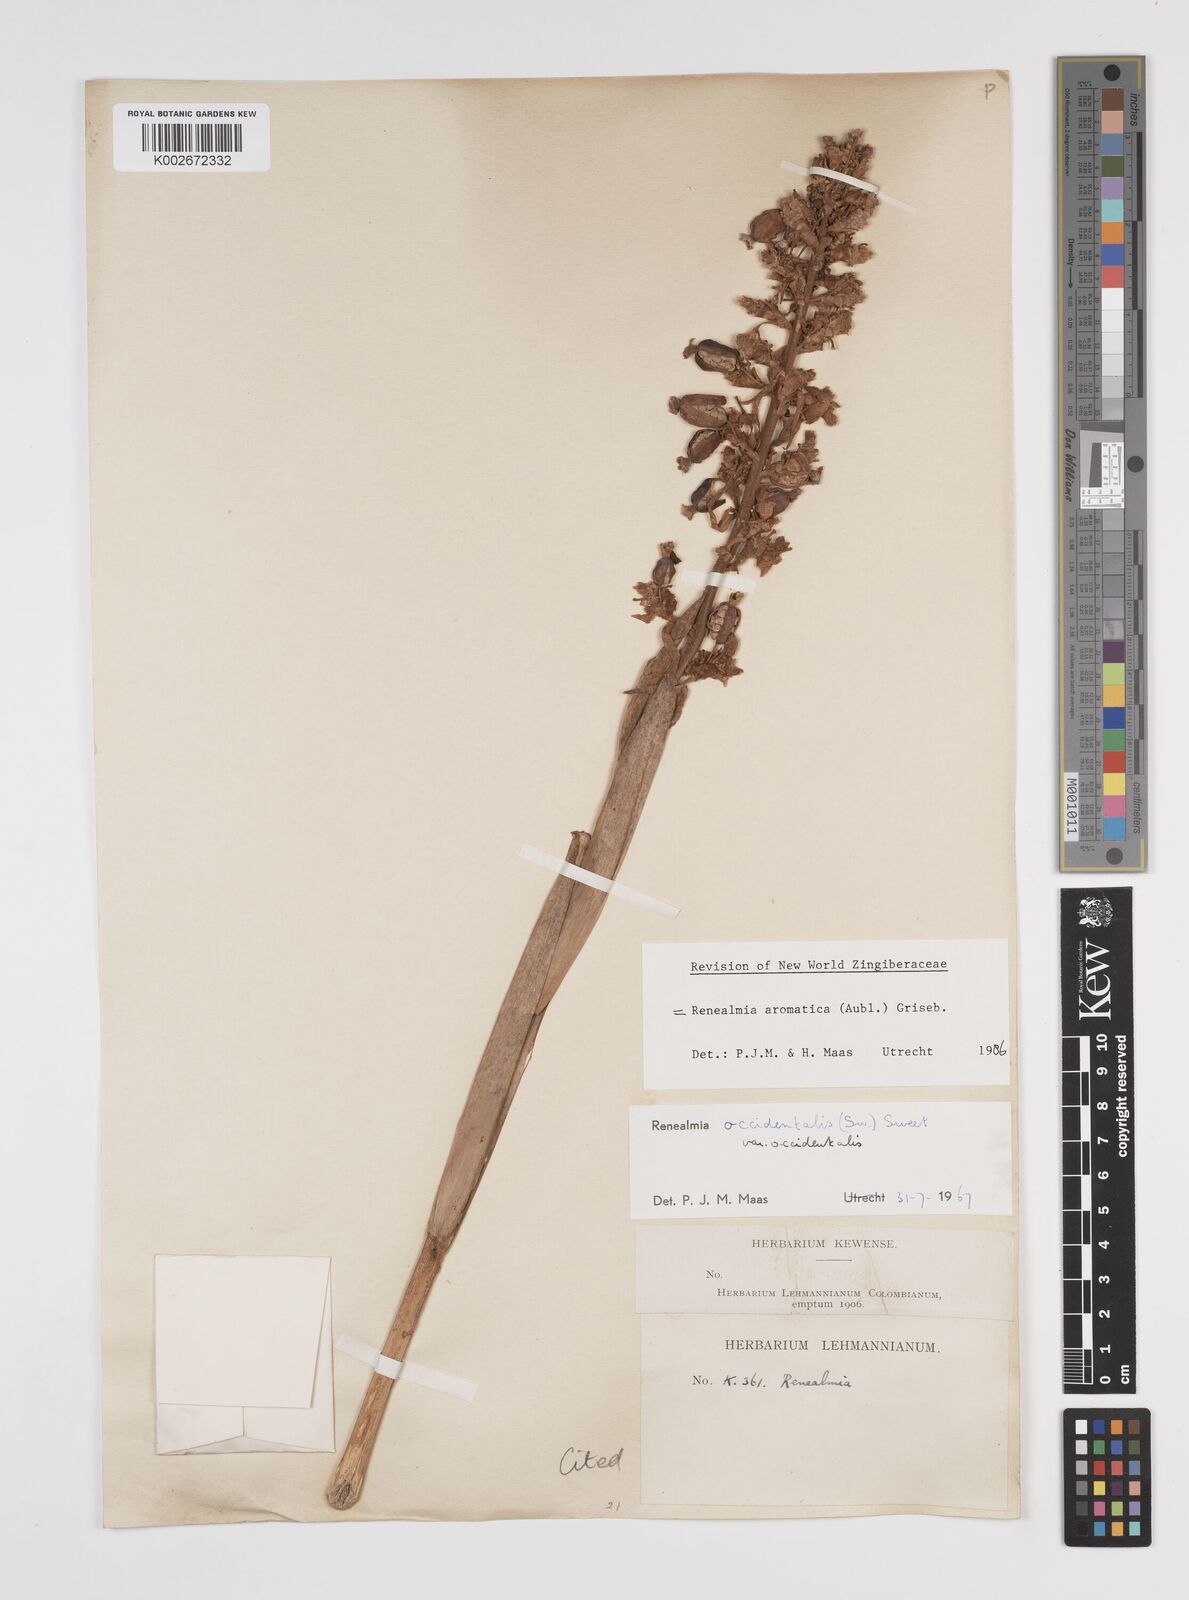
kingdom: Plantae
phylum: Tracheophyta
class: Liliopsida
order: Zingiberales
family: Zingiberaceae
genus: Renealmia
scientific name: Renealmia aromatica
